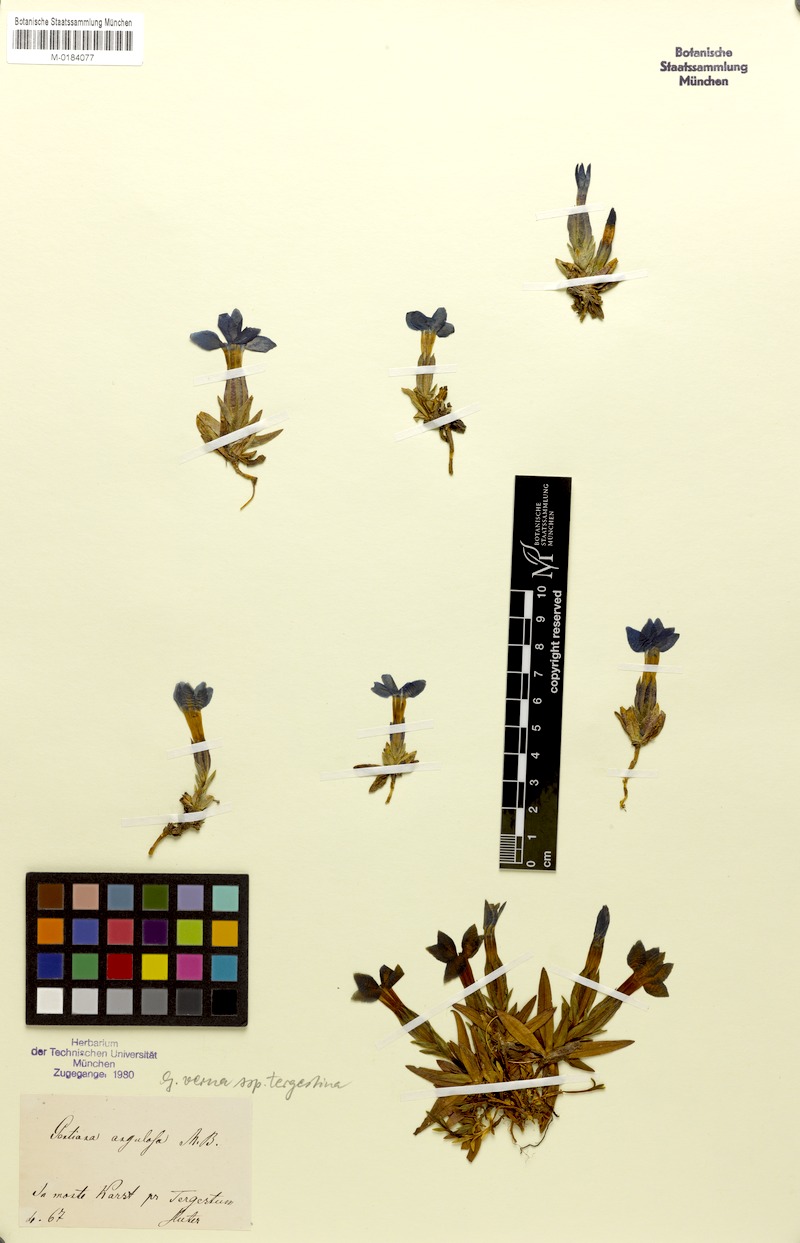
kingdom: Plantae
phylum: Tracheophyta
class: Magnoliopsida
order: Gentianales
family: Gentianaceae
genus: Gentiana
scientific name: Gentiana verna
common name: Spring gentian
